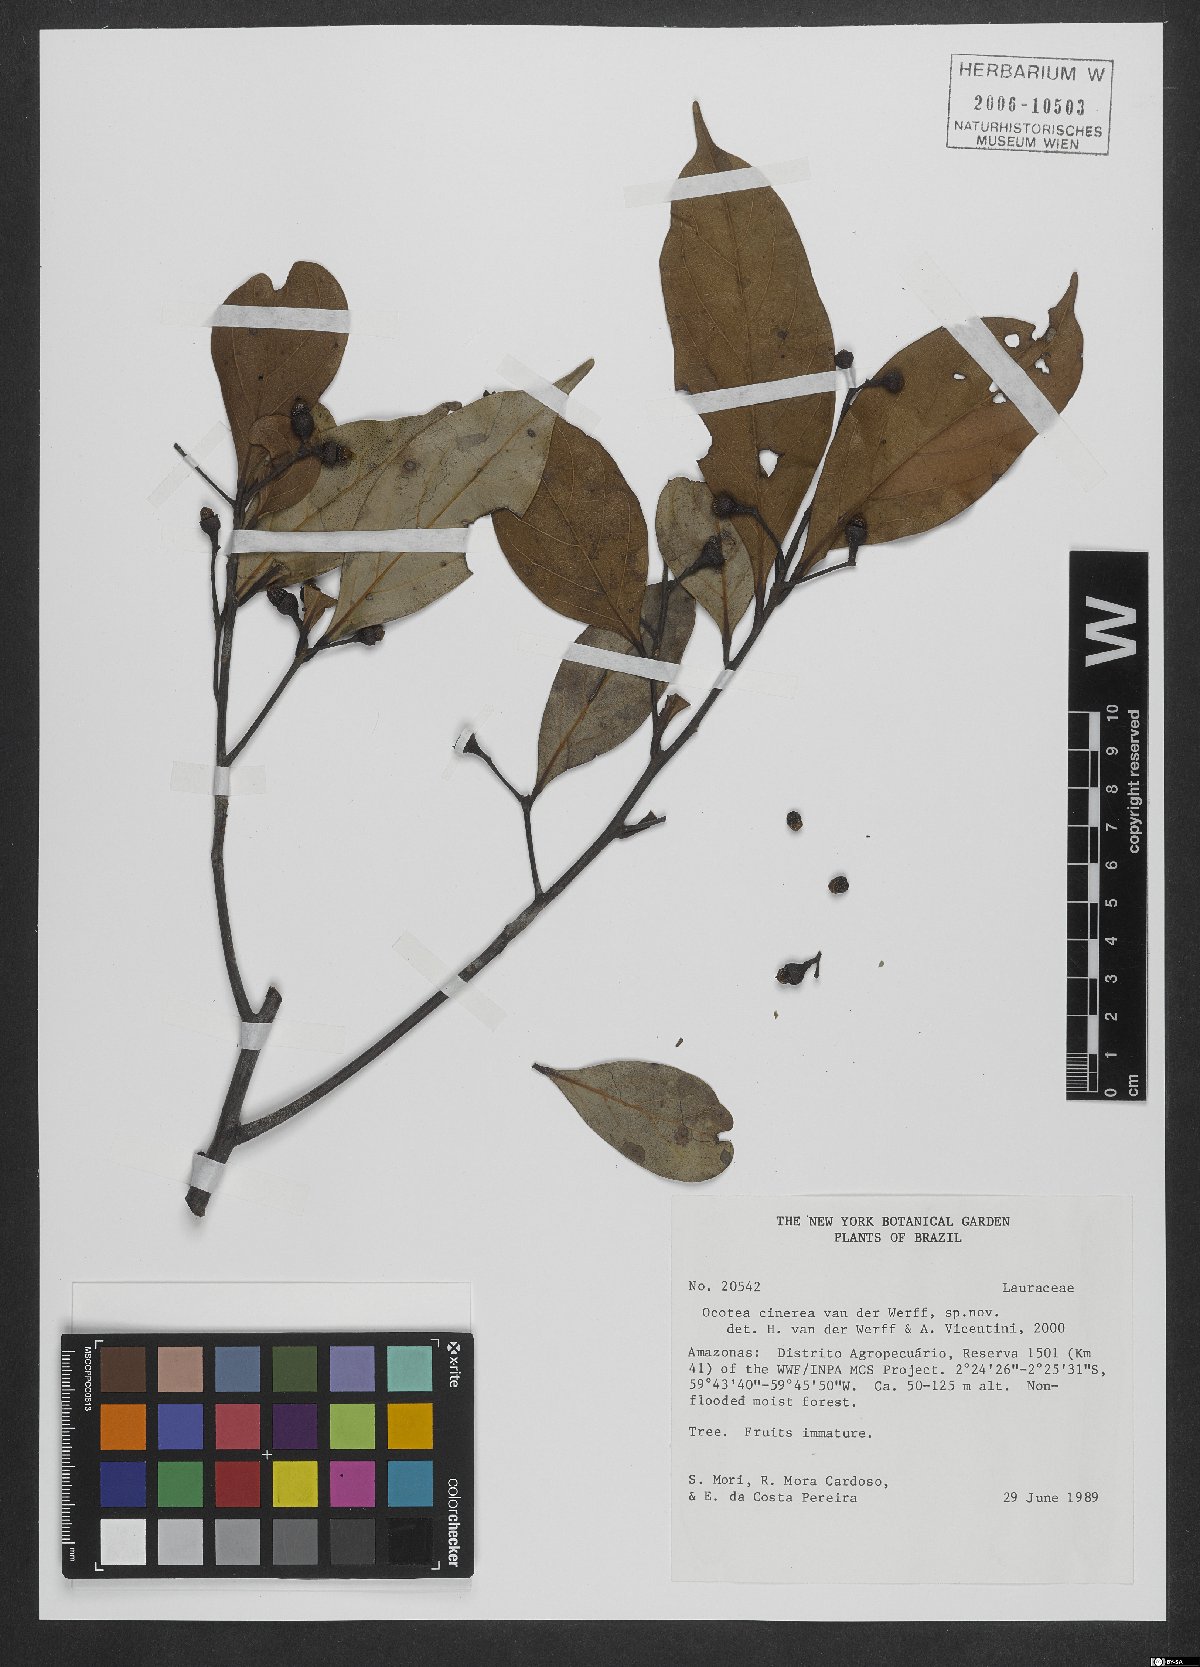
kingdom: Plantae
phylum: Tracheophyta
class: Magnoliopsida
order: Laurales
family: Lauraceae
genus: Ocotea
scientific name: Ocotea cinerea
